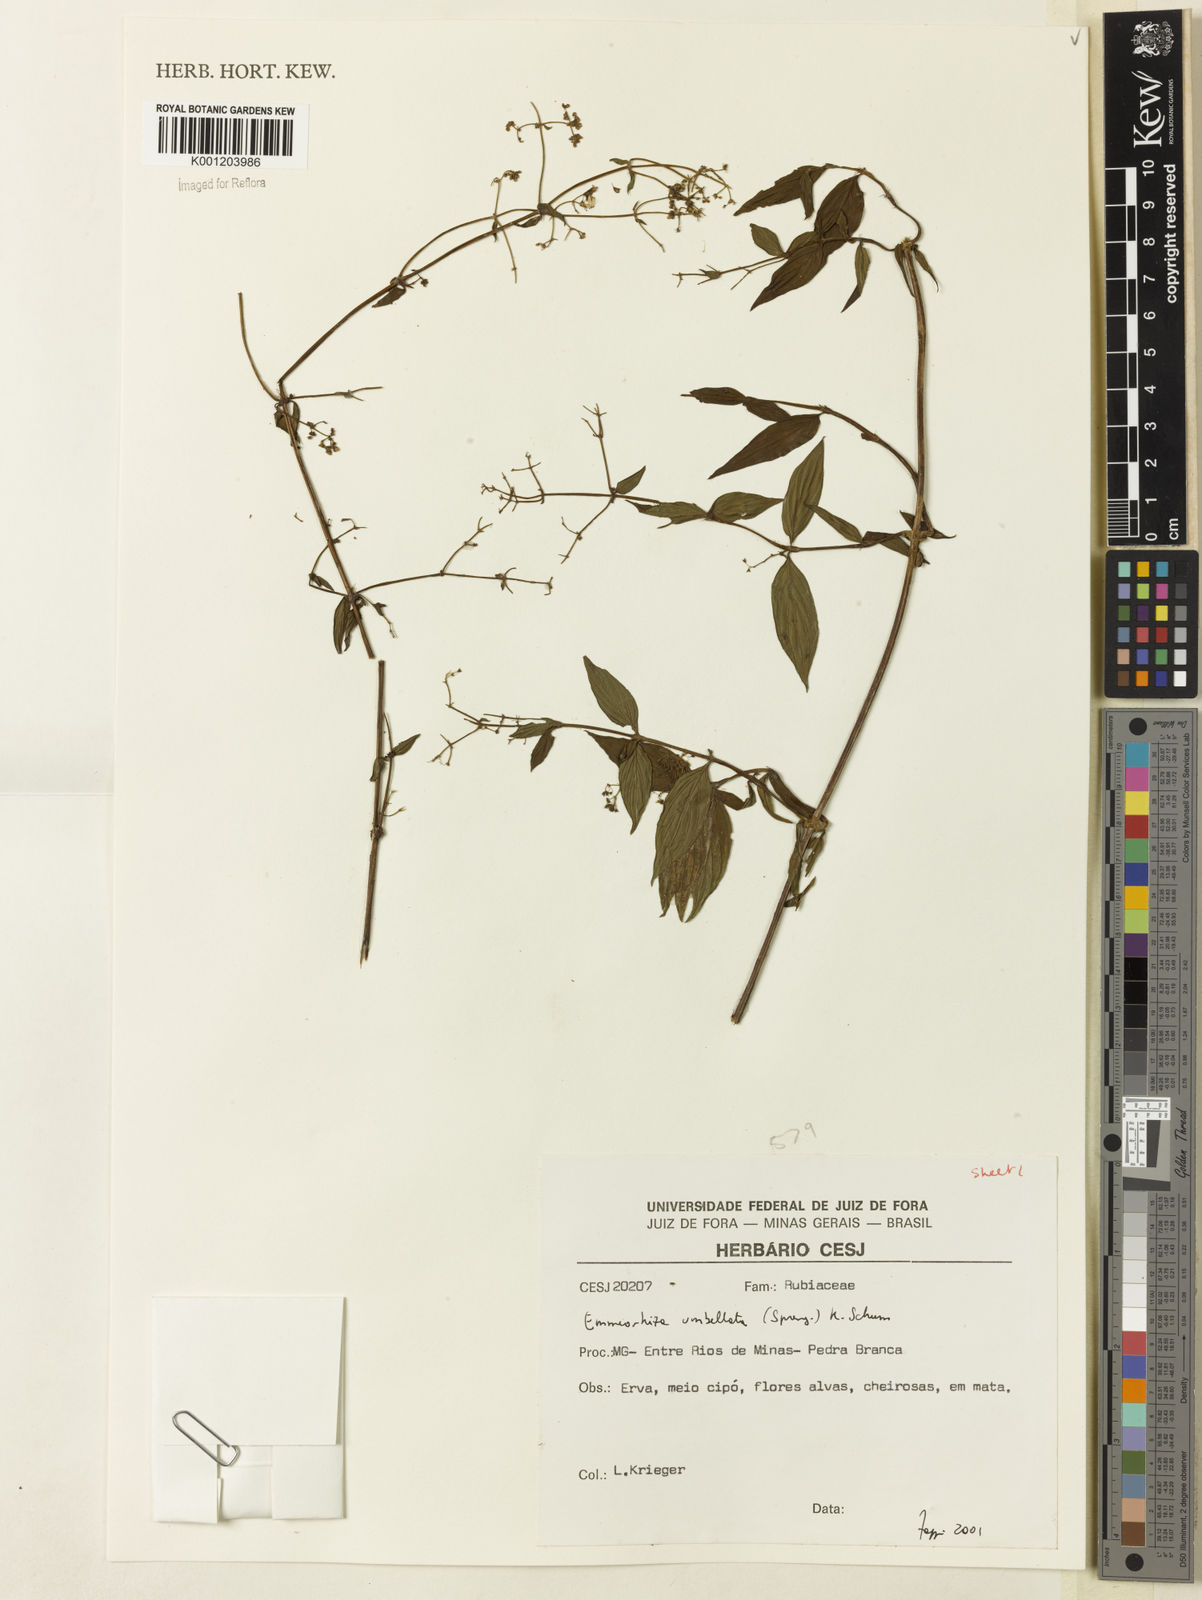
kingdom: Plantae
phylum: Tracheophyta
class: Magnoliopsida
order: Gentianales
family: Rubiaceae
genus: Emmeorhiza
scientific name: Emmeorhiza umbellata
